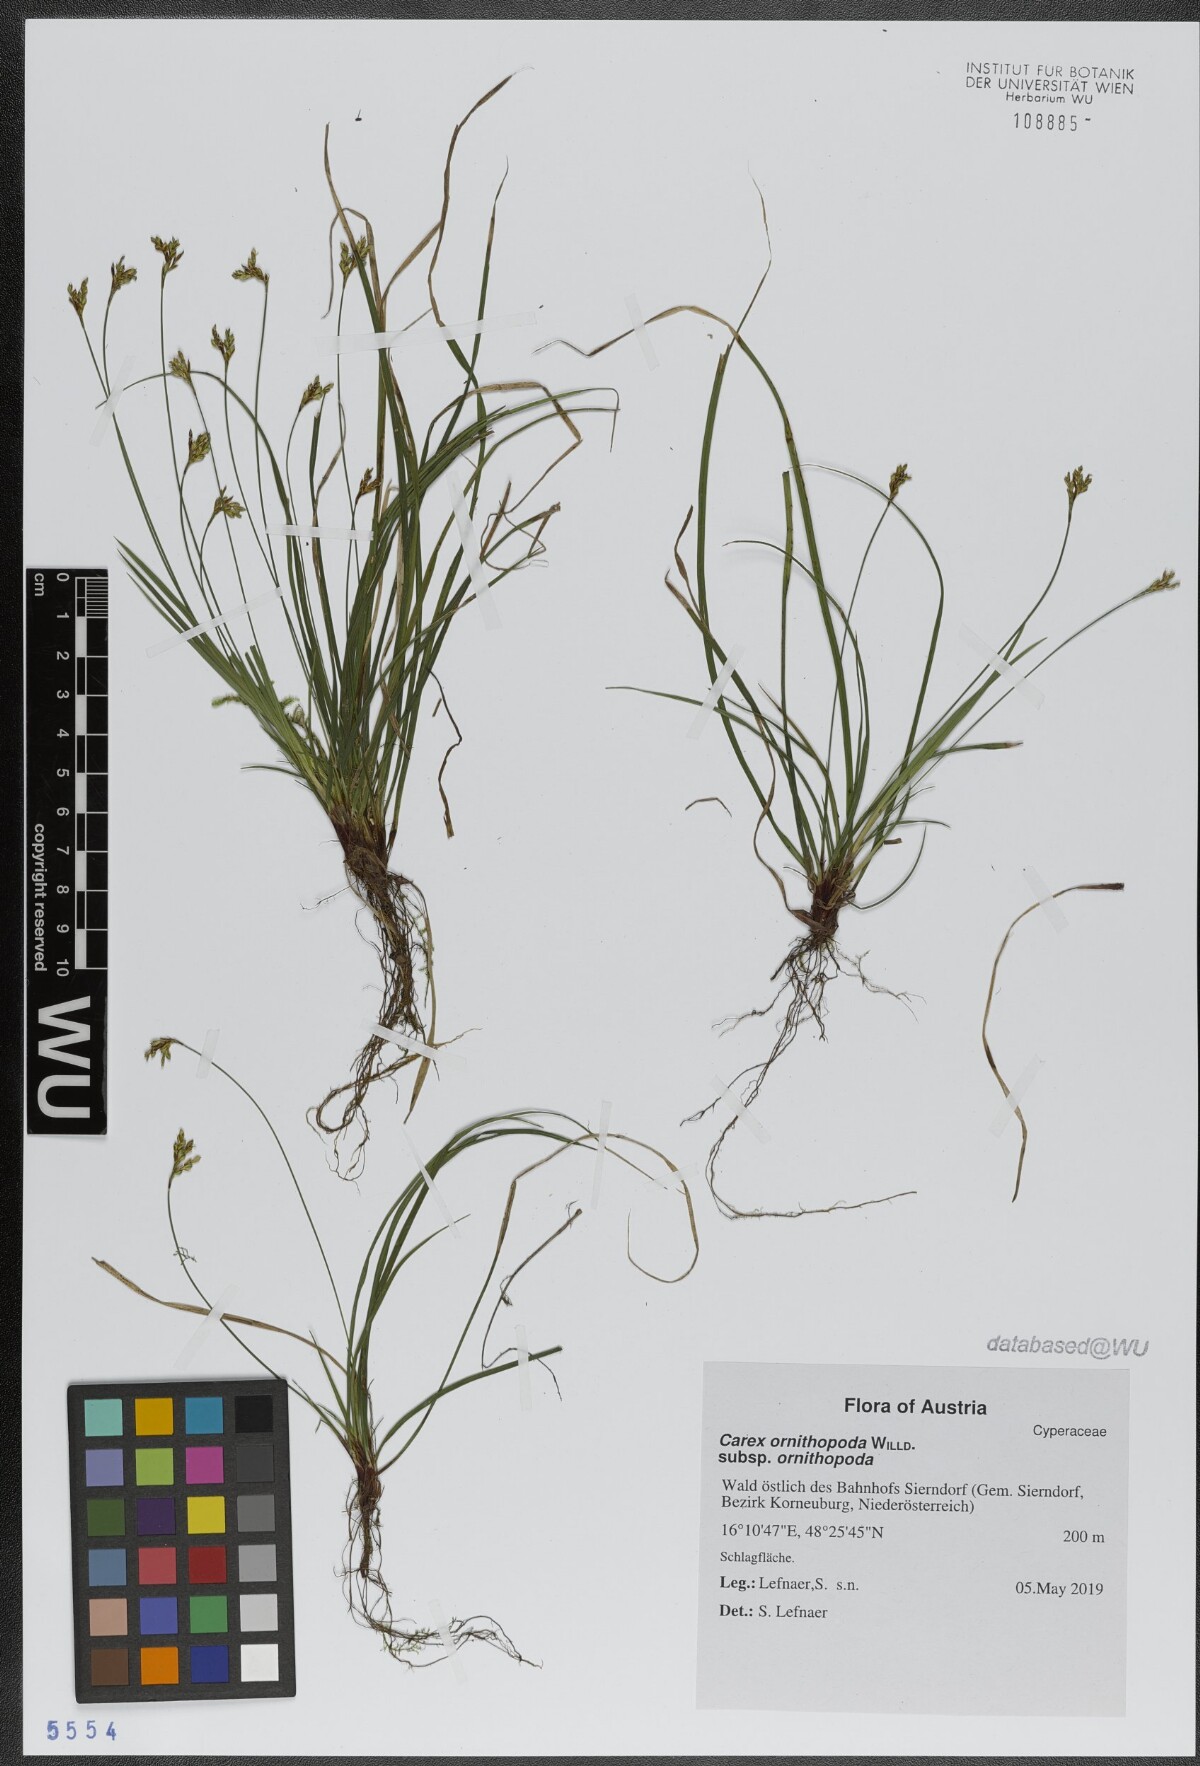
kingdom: Plantae
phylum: Tracheophyta
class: Liliopsida
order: Poales
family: Cyperaceae
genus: Carex
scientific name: Carex ornithopoda
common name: Bird's-foot sedge
